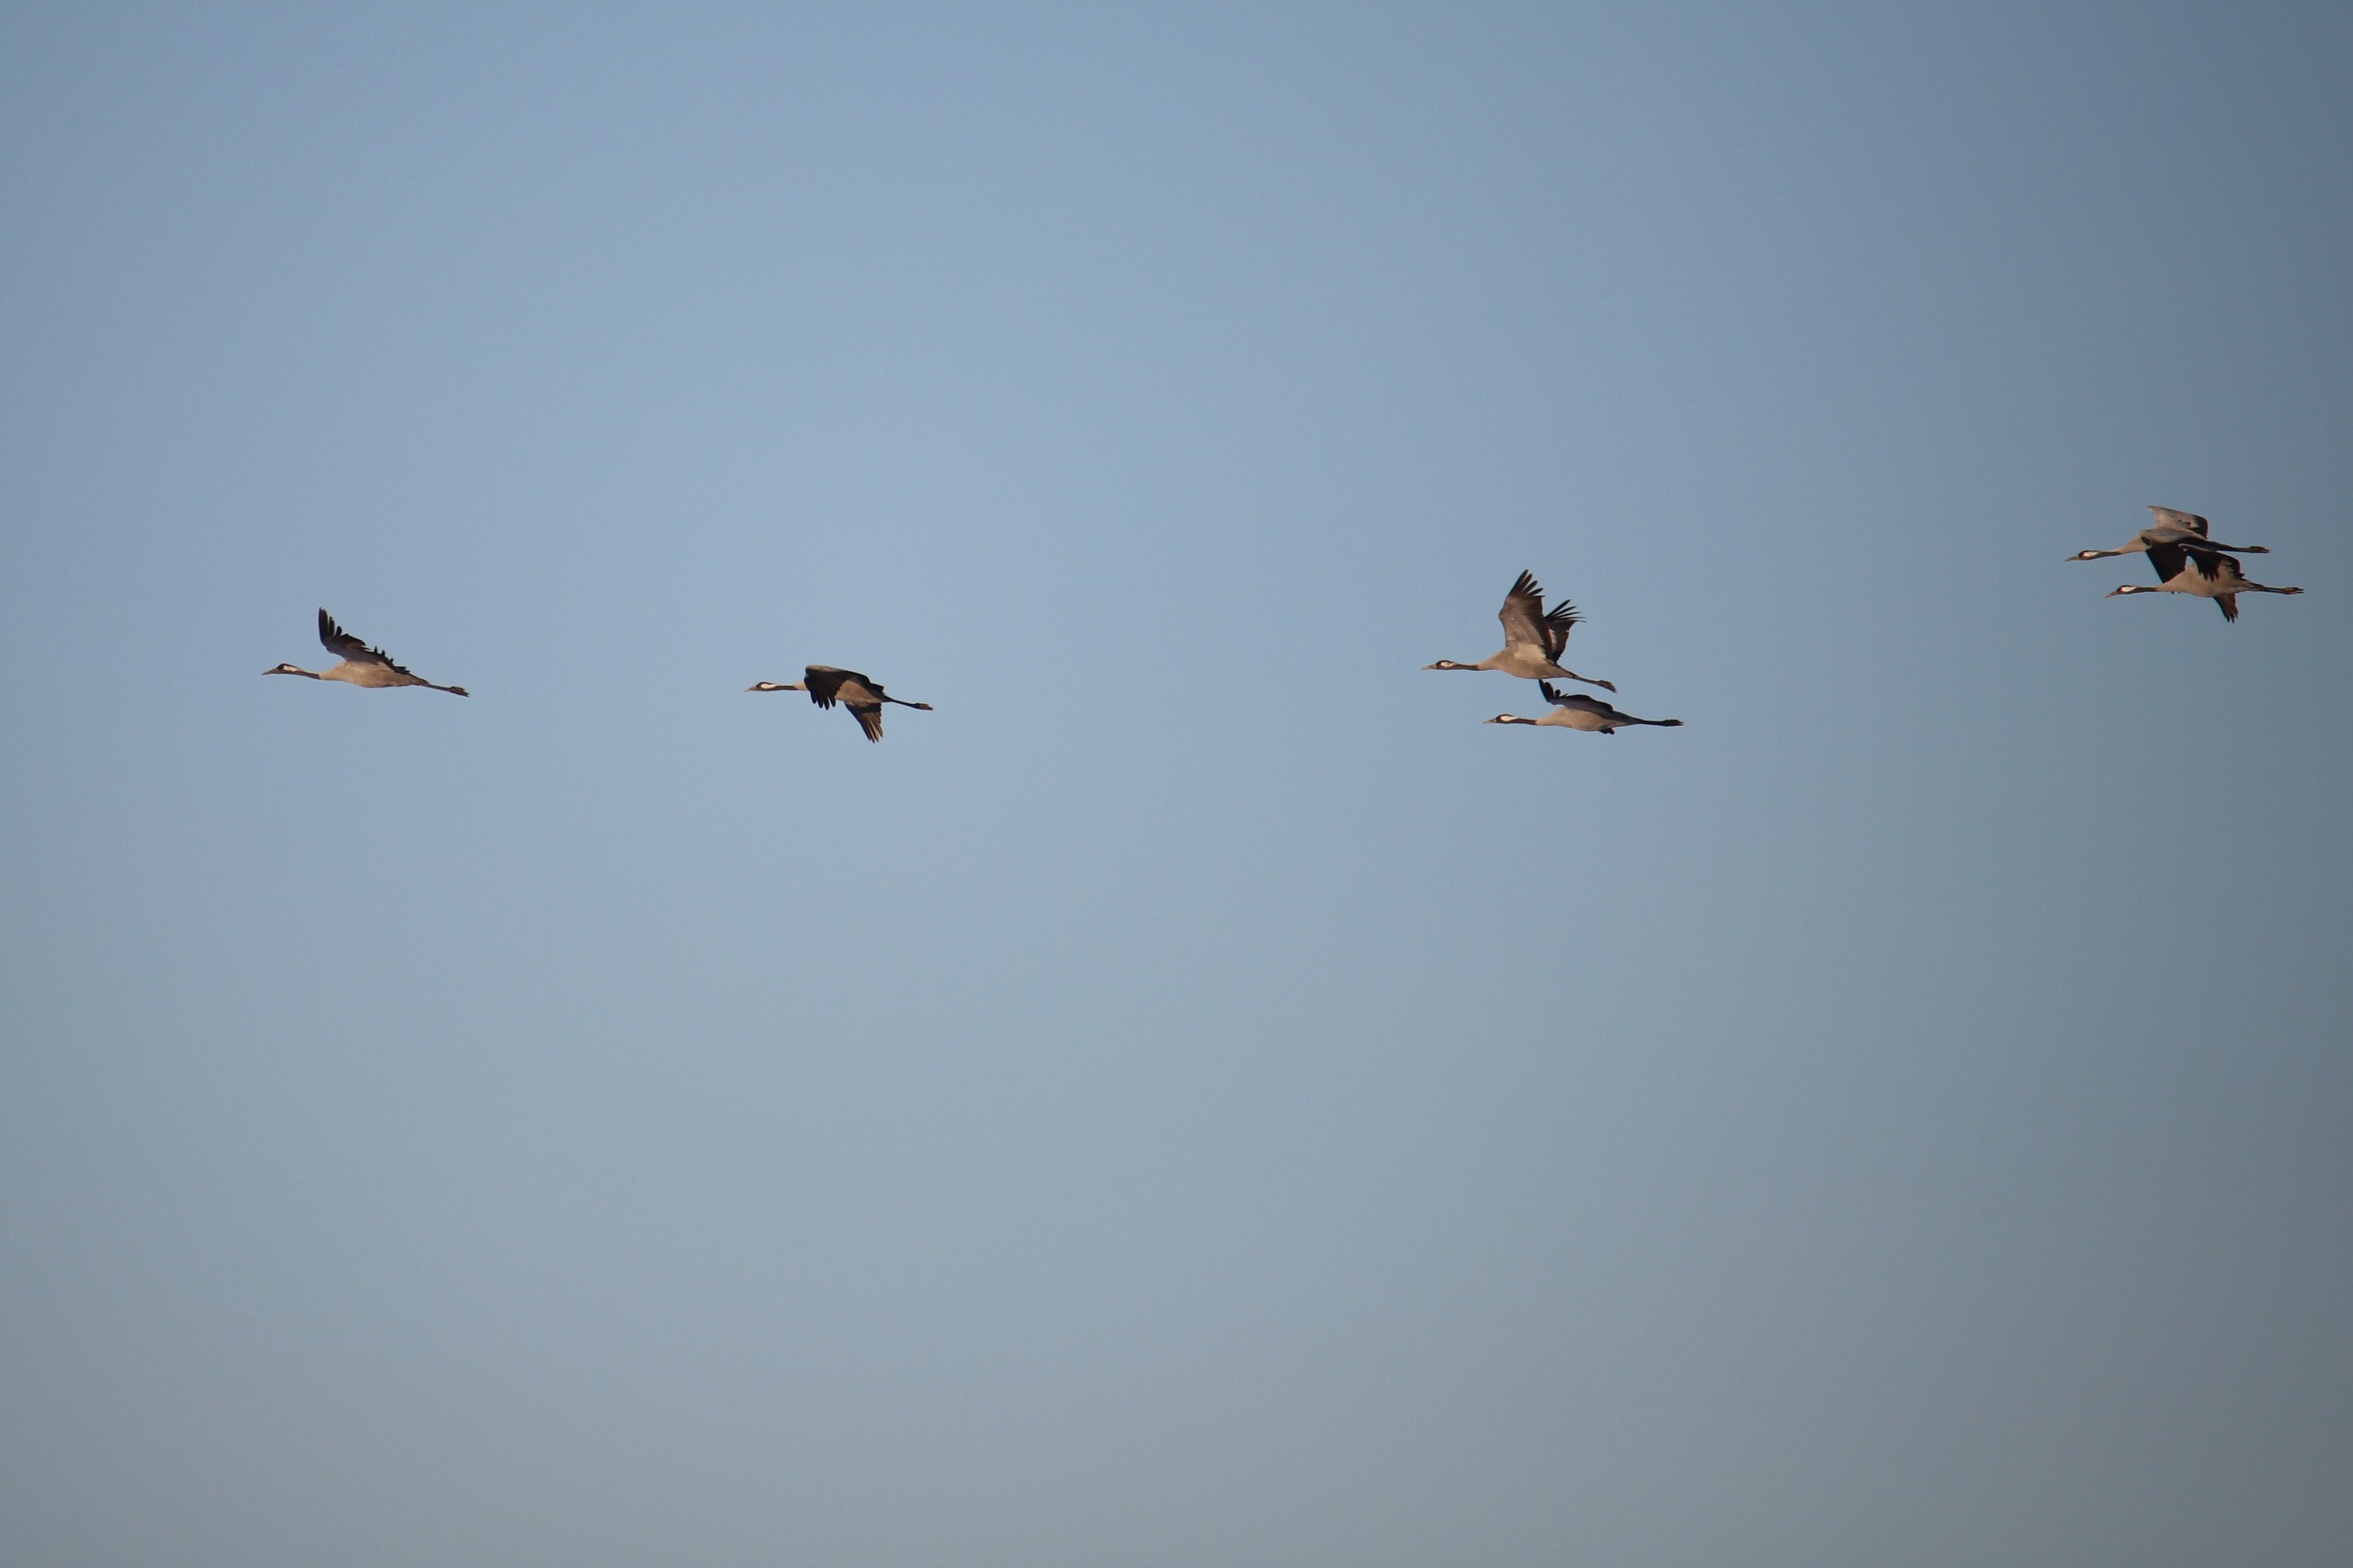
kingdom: Animalia
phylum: Chordata
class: Aves
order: Gruiformes
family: Gruidae
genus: Grus
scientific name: Grus grus
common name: Trane
